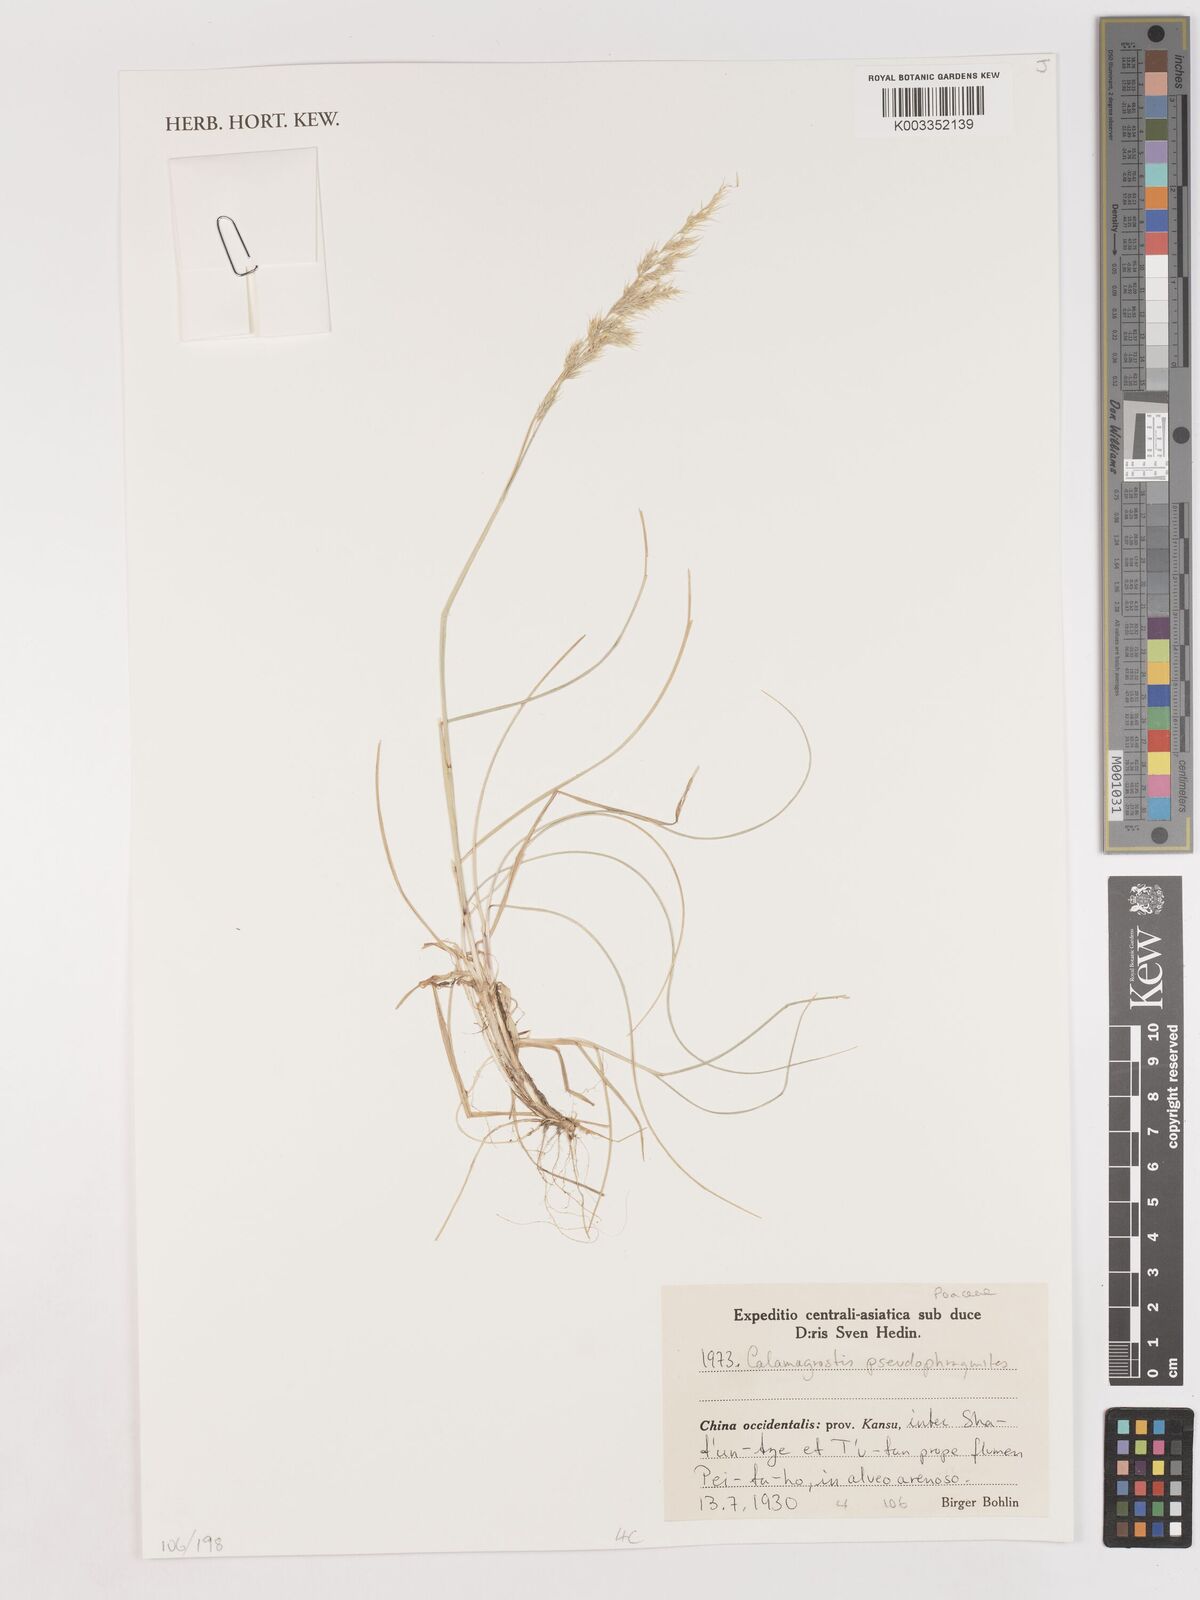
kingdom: Plantae
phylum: Tracheophyta
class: Liliopsida
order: Poales
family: Poaceae
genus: Calamagrostis
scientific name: Calamagrostis pseudophragmites
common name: Coastal small-reed
